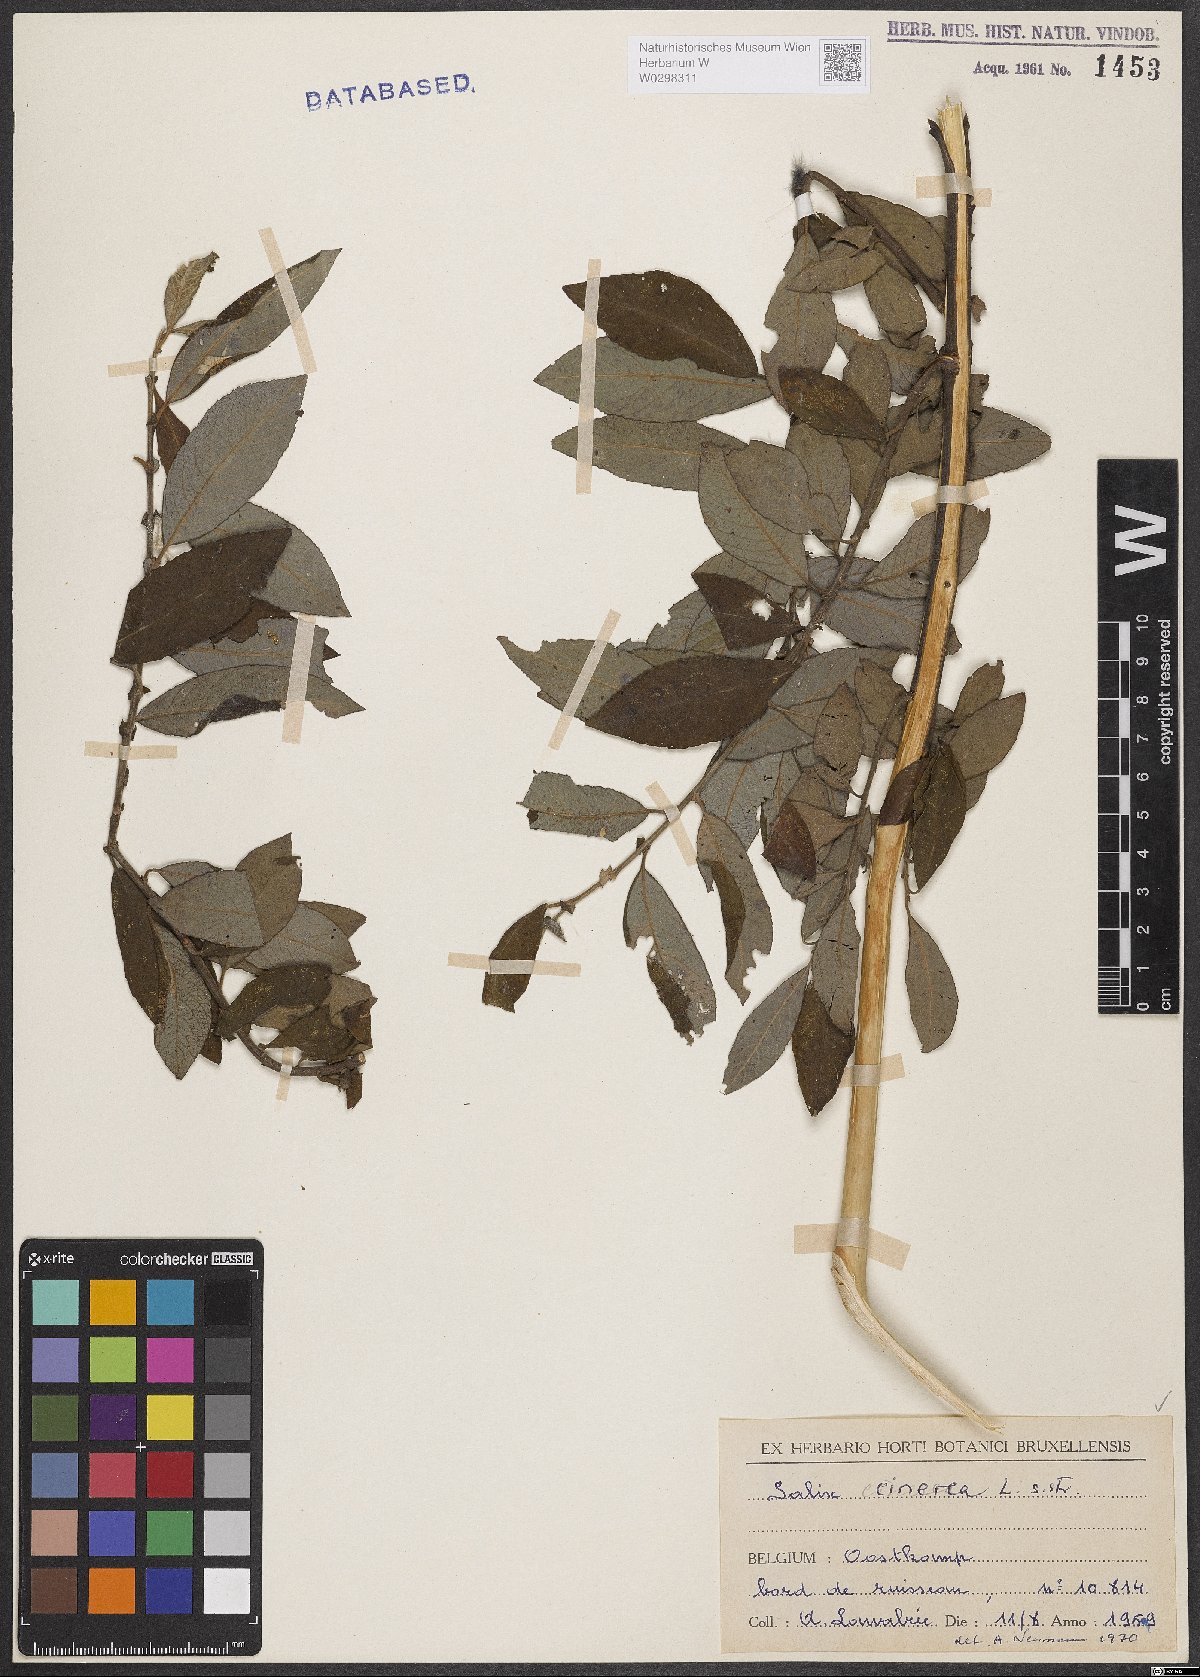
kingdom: Plantae
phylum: Tracheophyta
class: Magnoliopsida
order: Malpighiales
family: Salicaceae
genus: Salix
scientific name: Salix cinerea
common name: Common sallow
